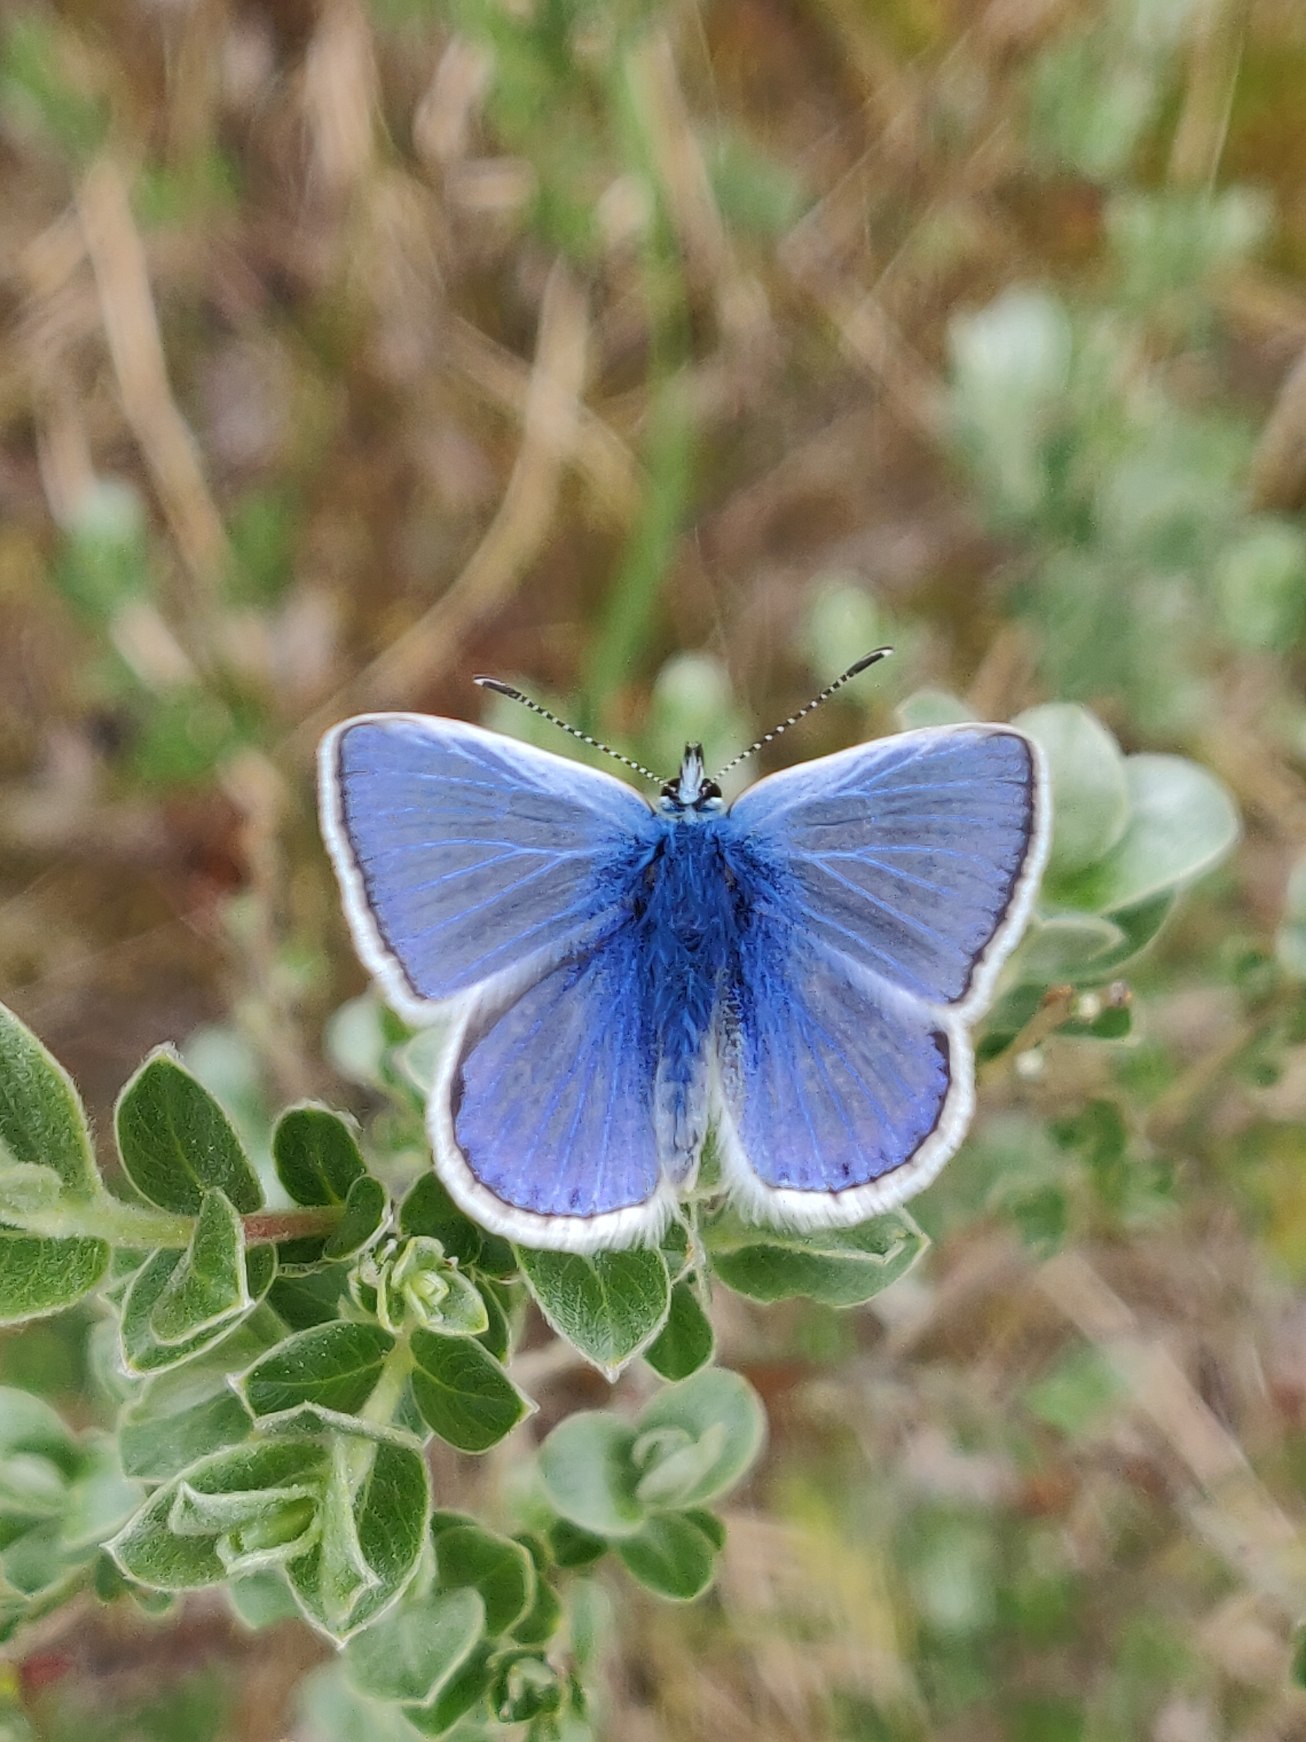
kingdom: Animalia
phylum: Arthropoda
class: Insecta
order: Lepidoptera
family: Lycaenidae
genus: Polyommatus
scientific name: Polyommatus icarus
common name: Almindelig blåfugl
